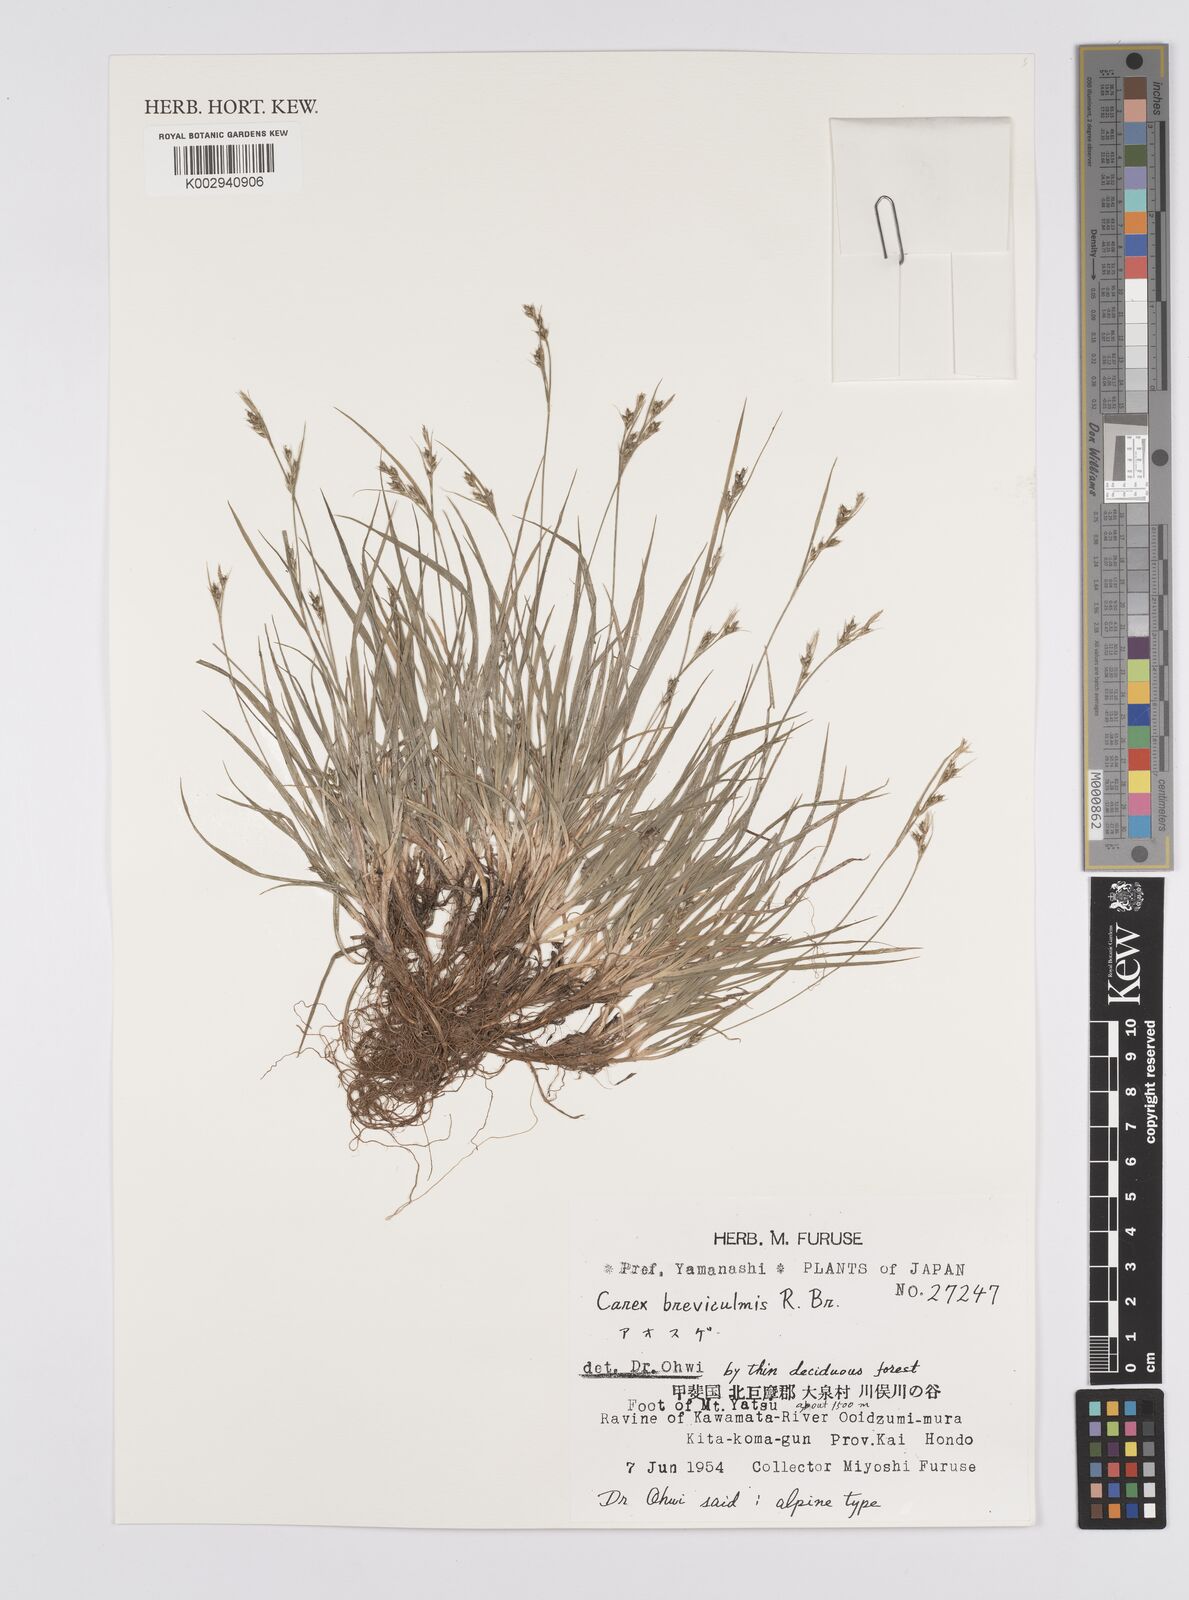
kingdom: Plantae
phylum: Tracheophyta
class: Liliopsida
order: Poales
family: Cyperaceae
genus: Carex
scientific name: Carex breviculmis
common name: Asian shortstem sedge
